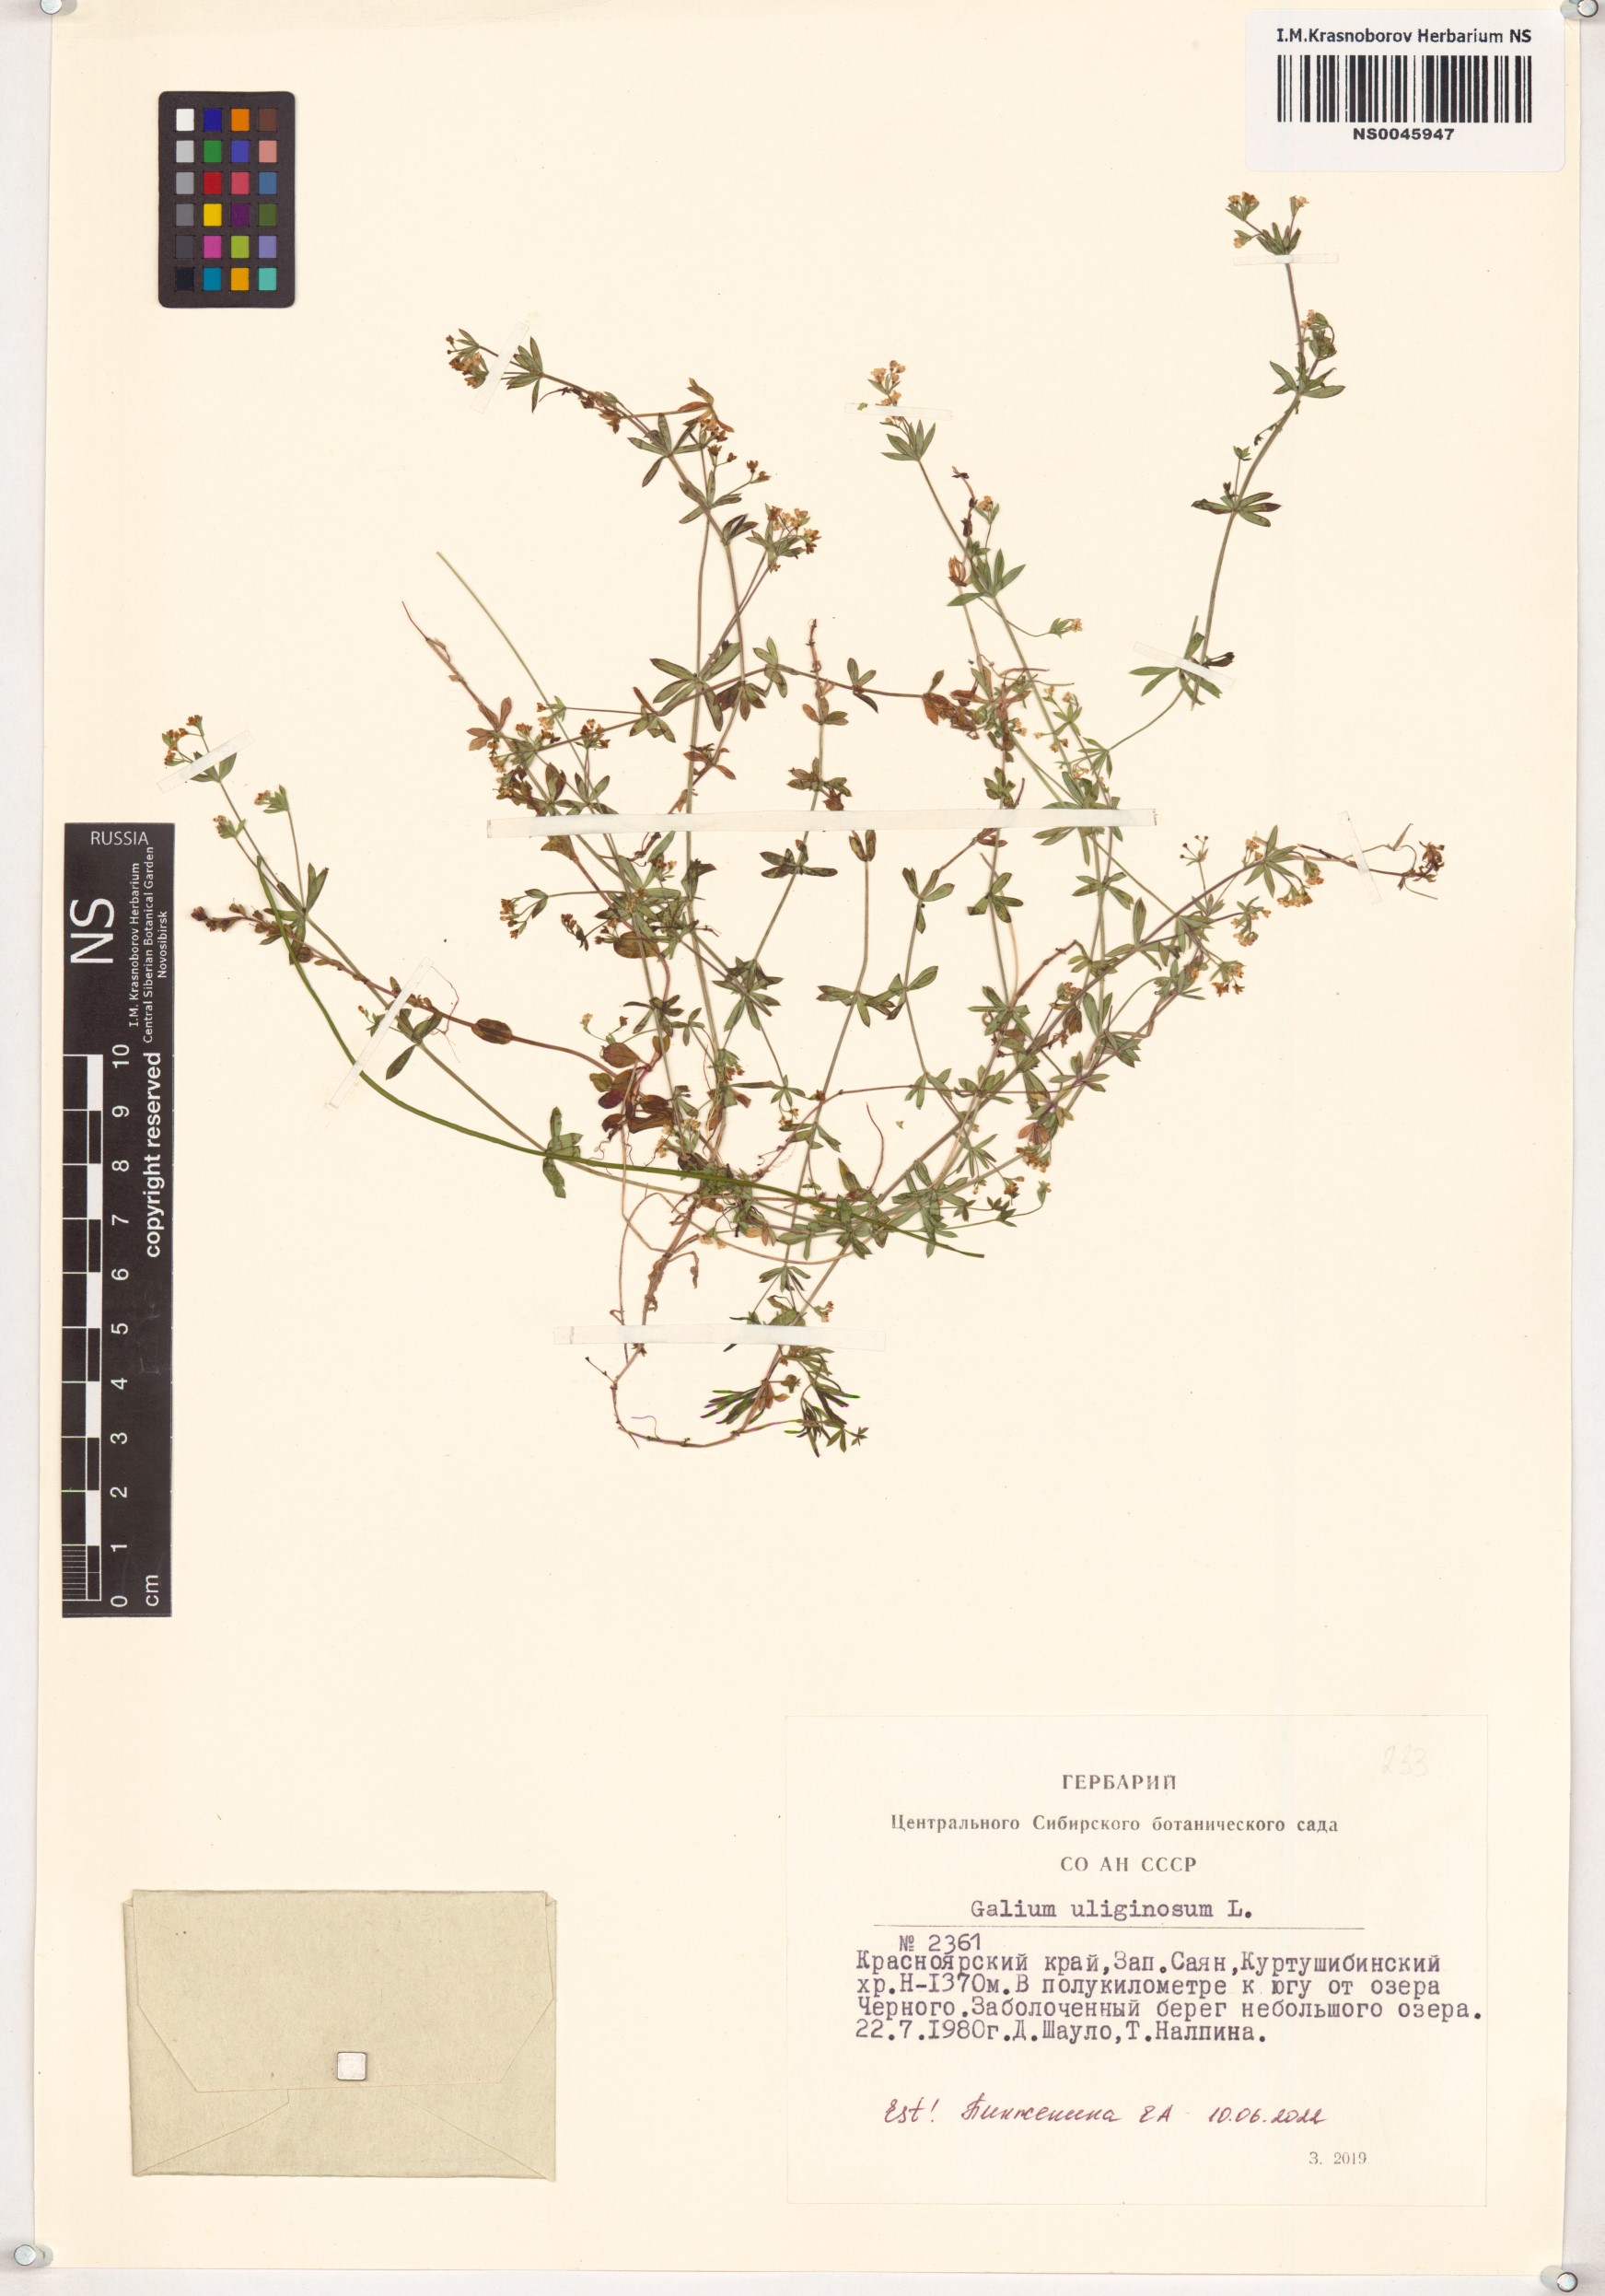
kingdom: Plantae
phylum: Tracheophyta
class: Magnoliopsida
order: Gentianales
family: Rubiaceae
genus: Galium
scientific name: Galium uliginosum
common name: Fen bedstraw
